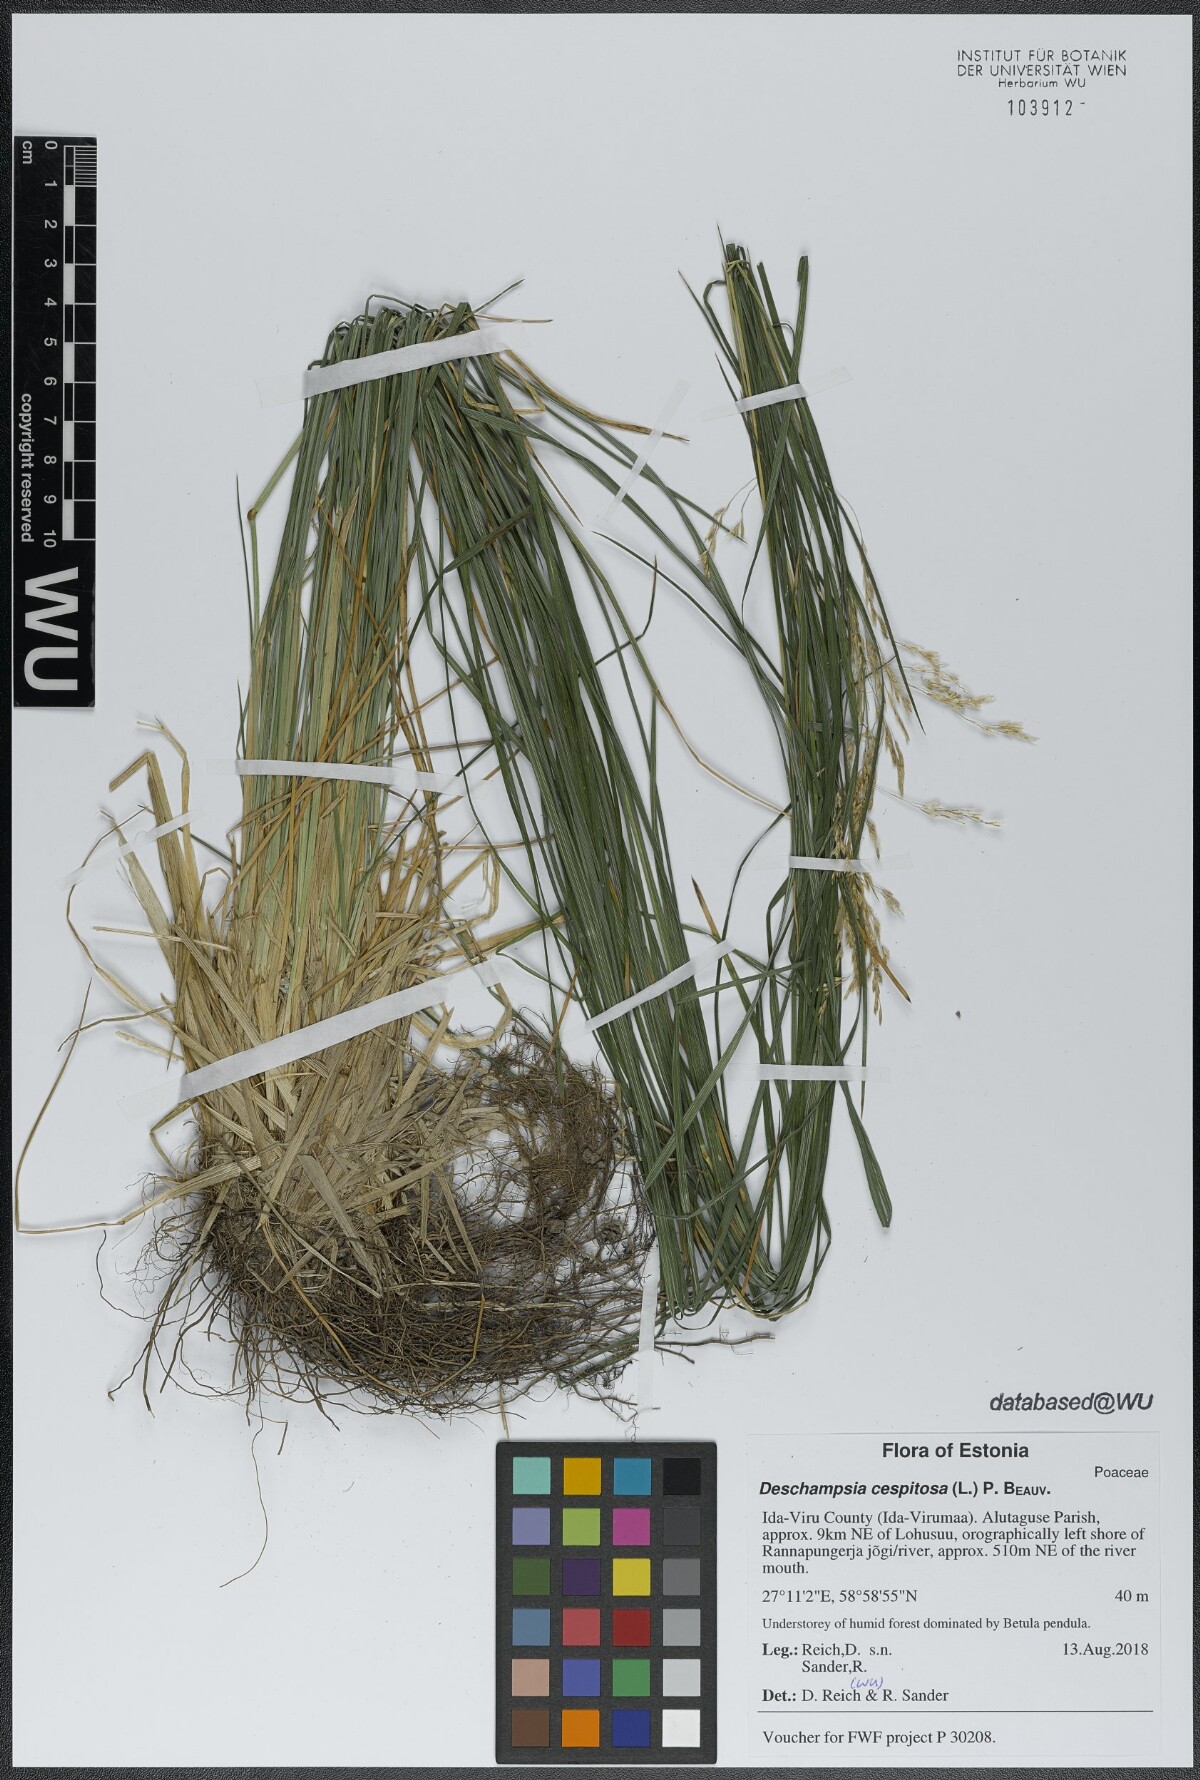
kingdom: Plantae
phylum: Tracheophyta
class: Liliopsida
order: Poales
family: Poaceae
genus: Deschampsia
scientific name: Deschampsia cespitosa
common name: Tufted hair-grass
